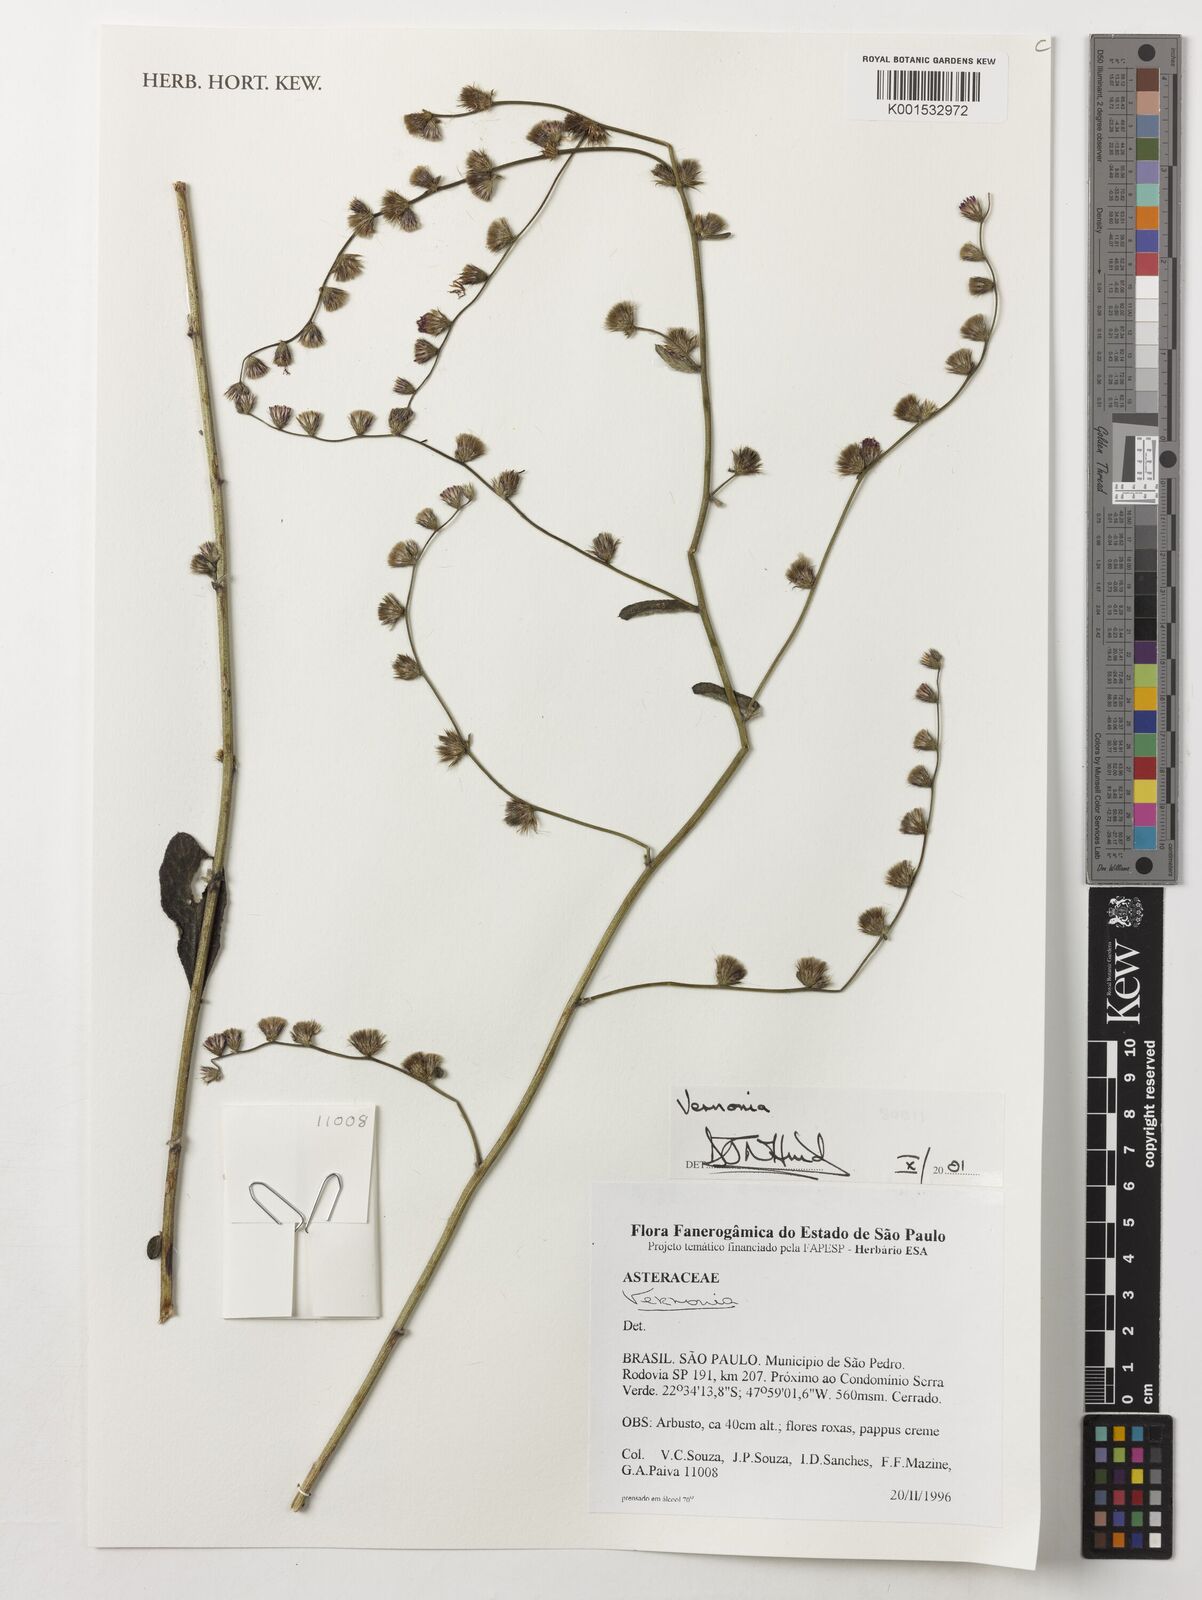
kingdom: Plantae
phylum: Tracheophyta
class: Magnoliopsida
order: Asterales
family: Asteraceae
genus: Vernonia
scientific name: Vernonia
